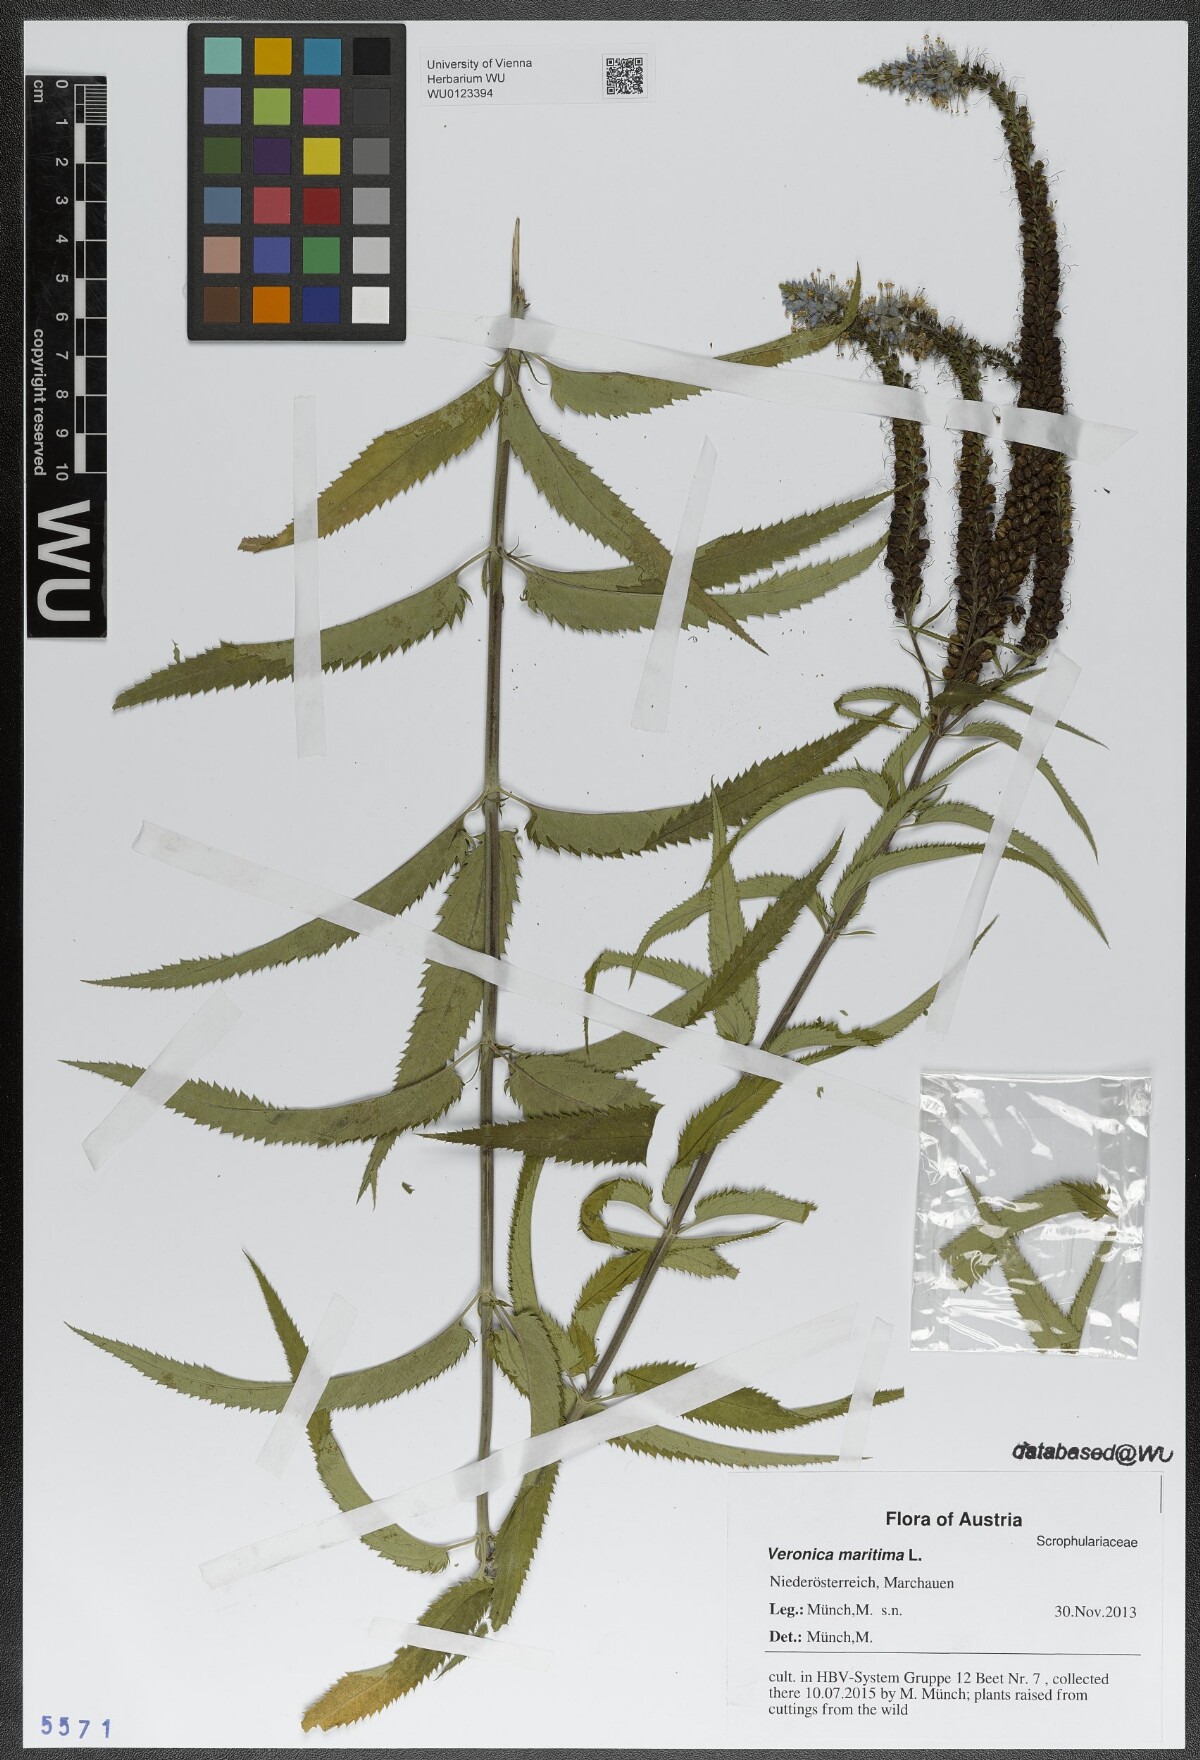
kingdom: Plantae
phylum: Tracheophyta
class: Magnoliopsida
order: Lamiales
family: Plantaginaceae
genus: Veronica
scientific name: Veronica maritima
